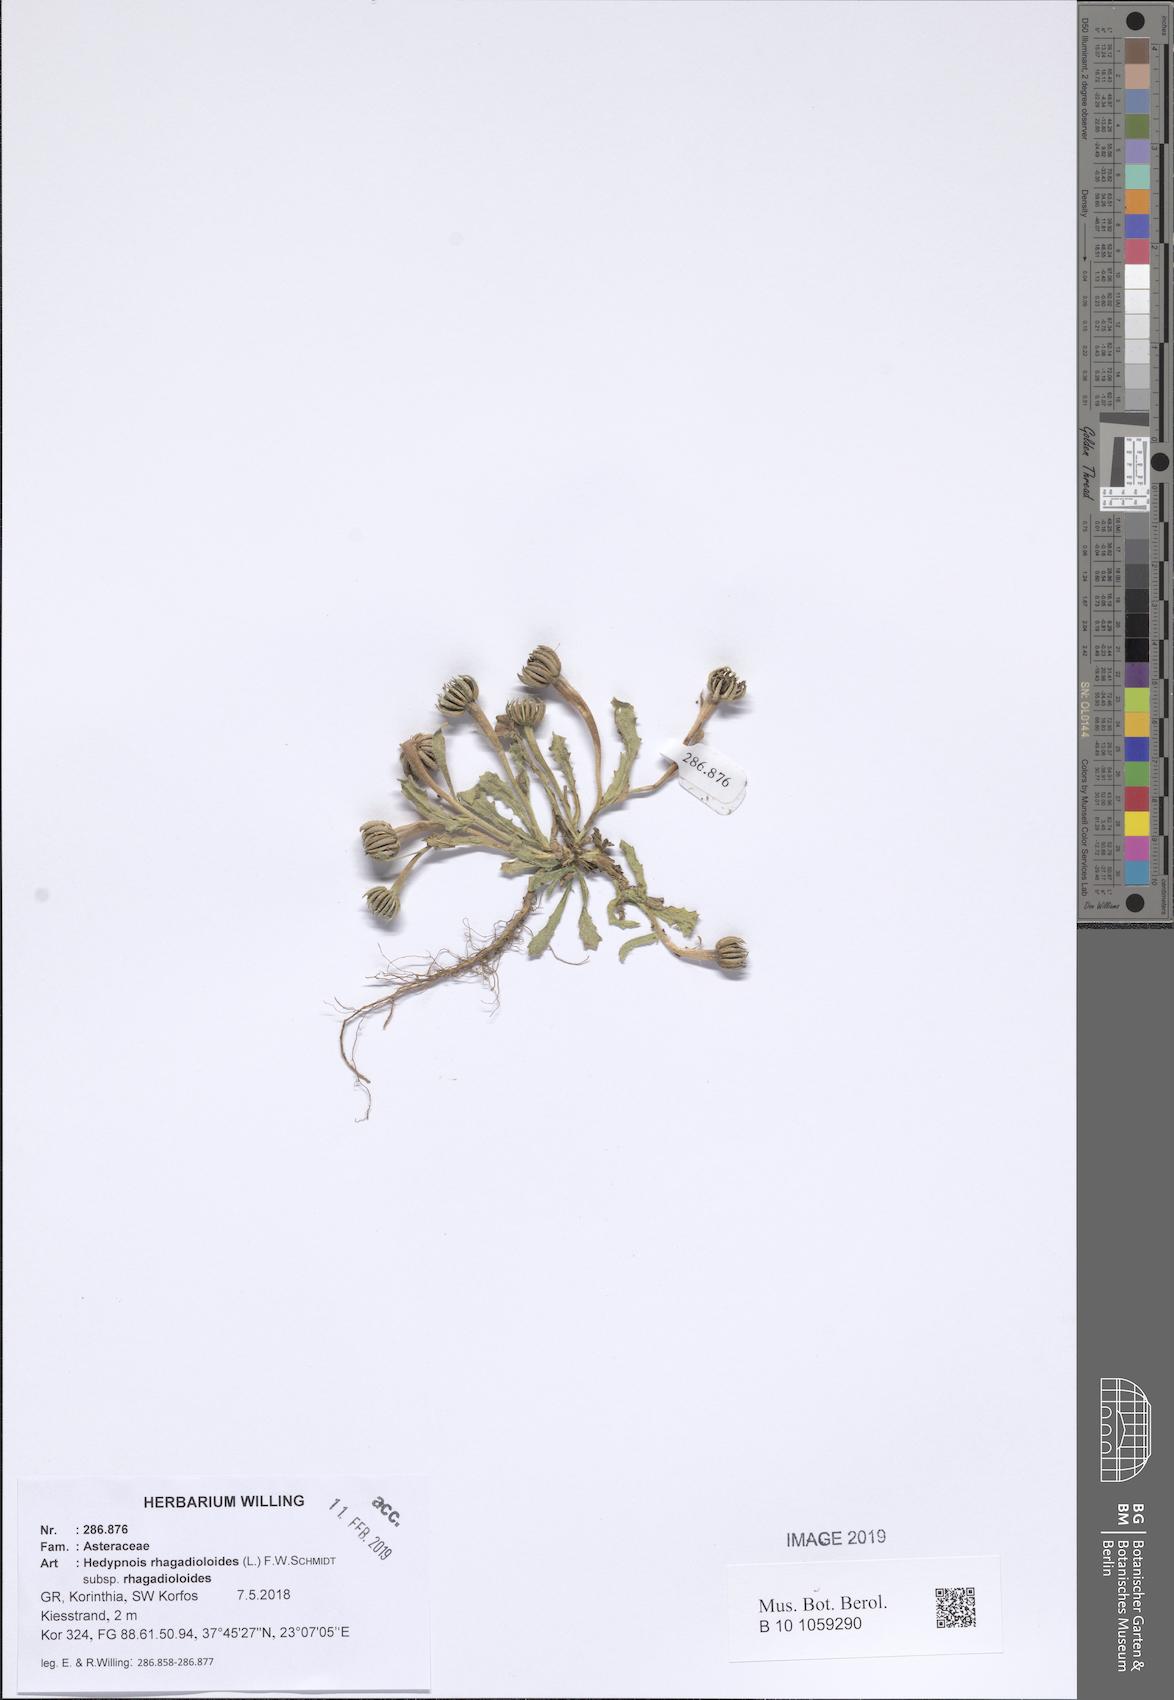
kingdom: Plantae
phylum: Tracheophyta
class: Magnoliopsida
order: Asterales
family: Asteraceae
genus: Hedypnois
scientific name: Hedypnois rhagadioloides
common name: Cretan weed
